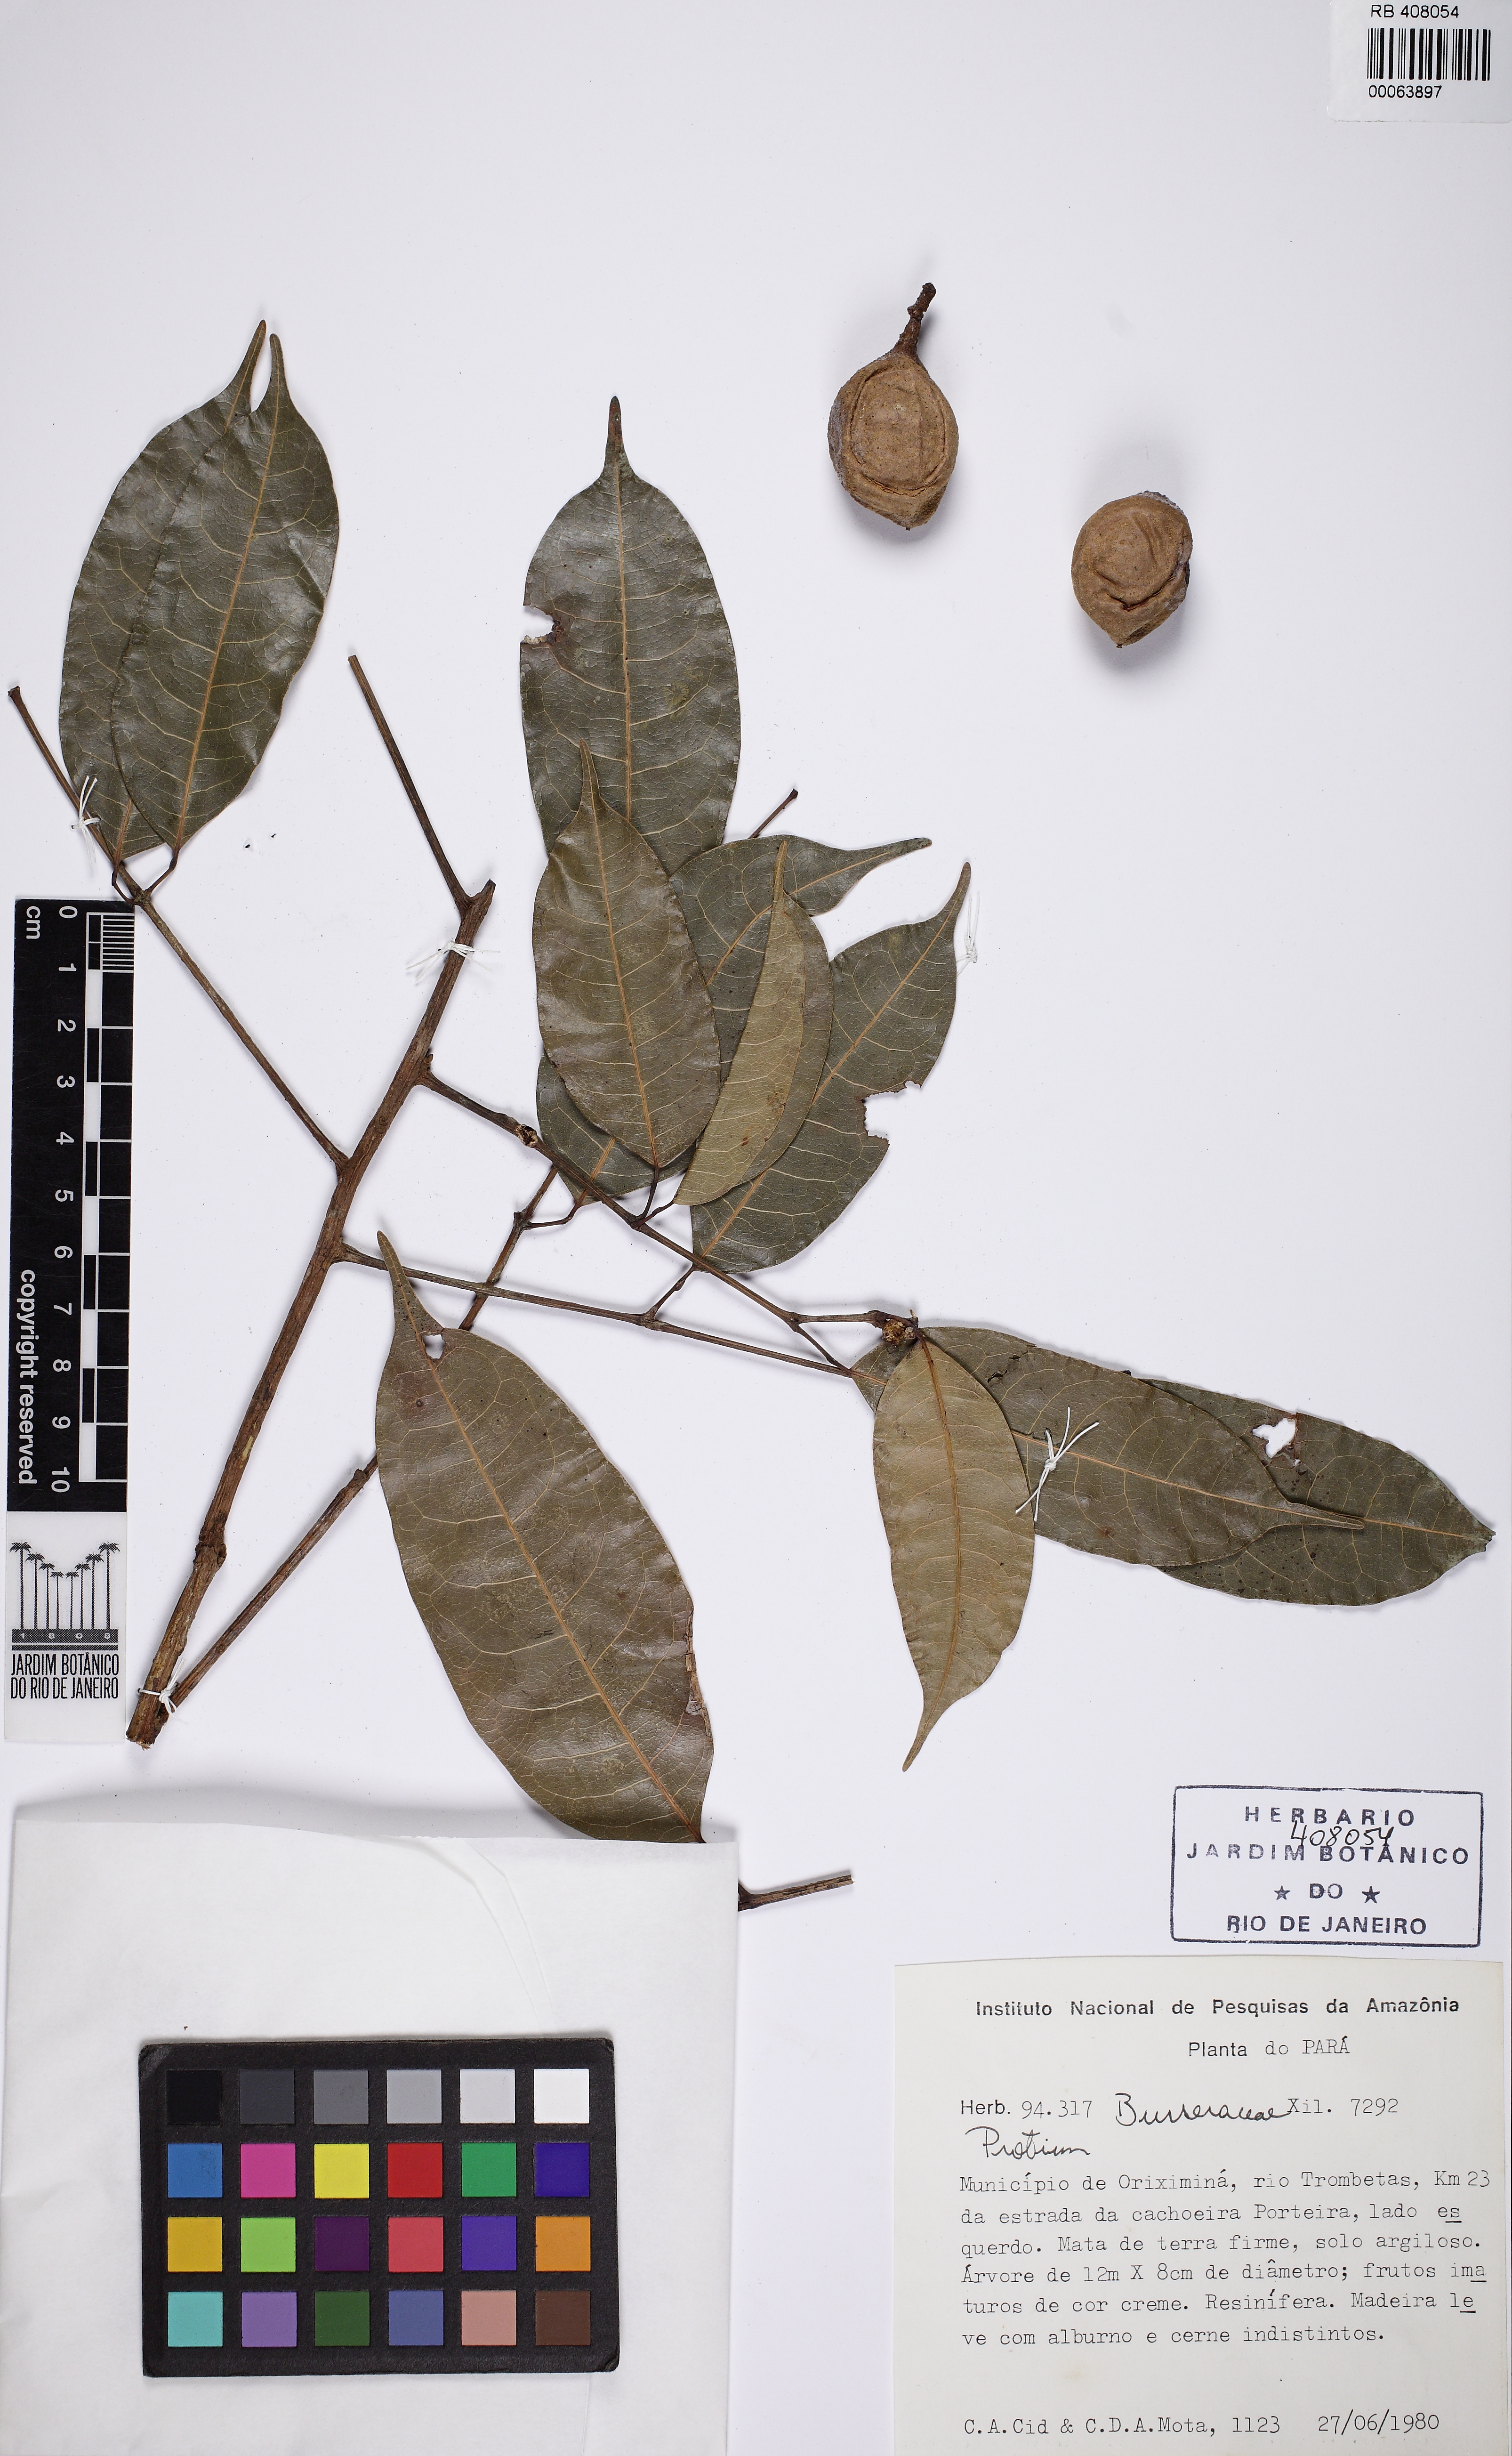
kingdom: Plantae
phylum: Tracheophyta
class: Magnoliopsida
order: Sapindales
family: Burseraceae
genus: Protium
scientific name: Protium demerarense
